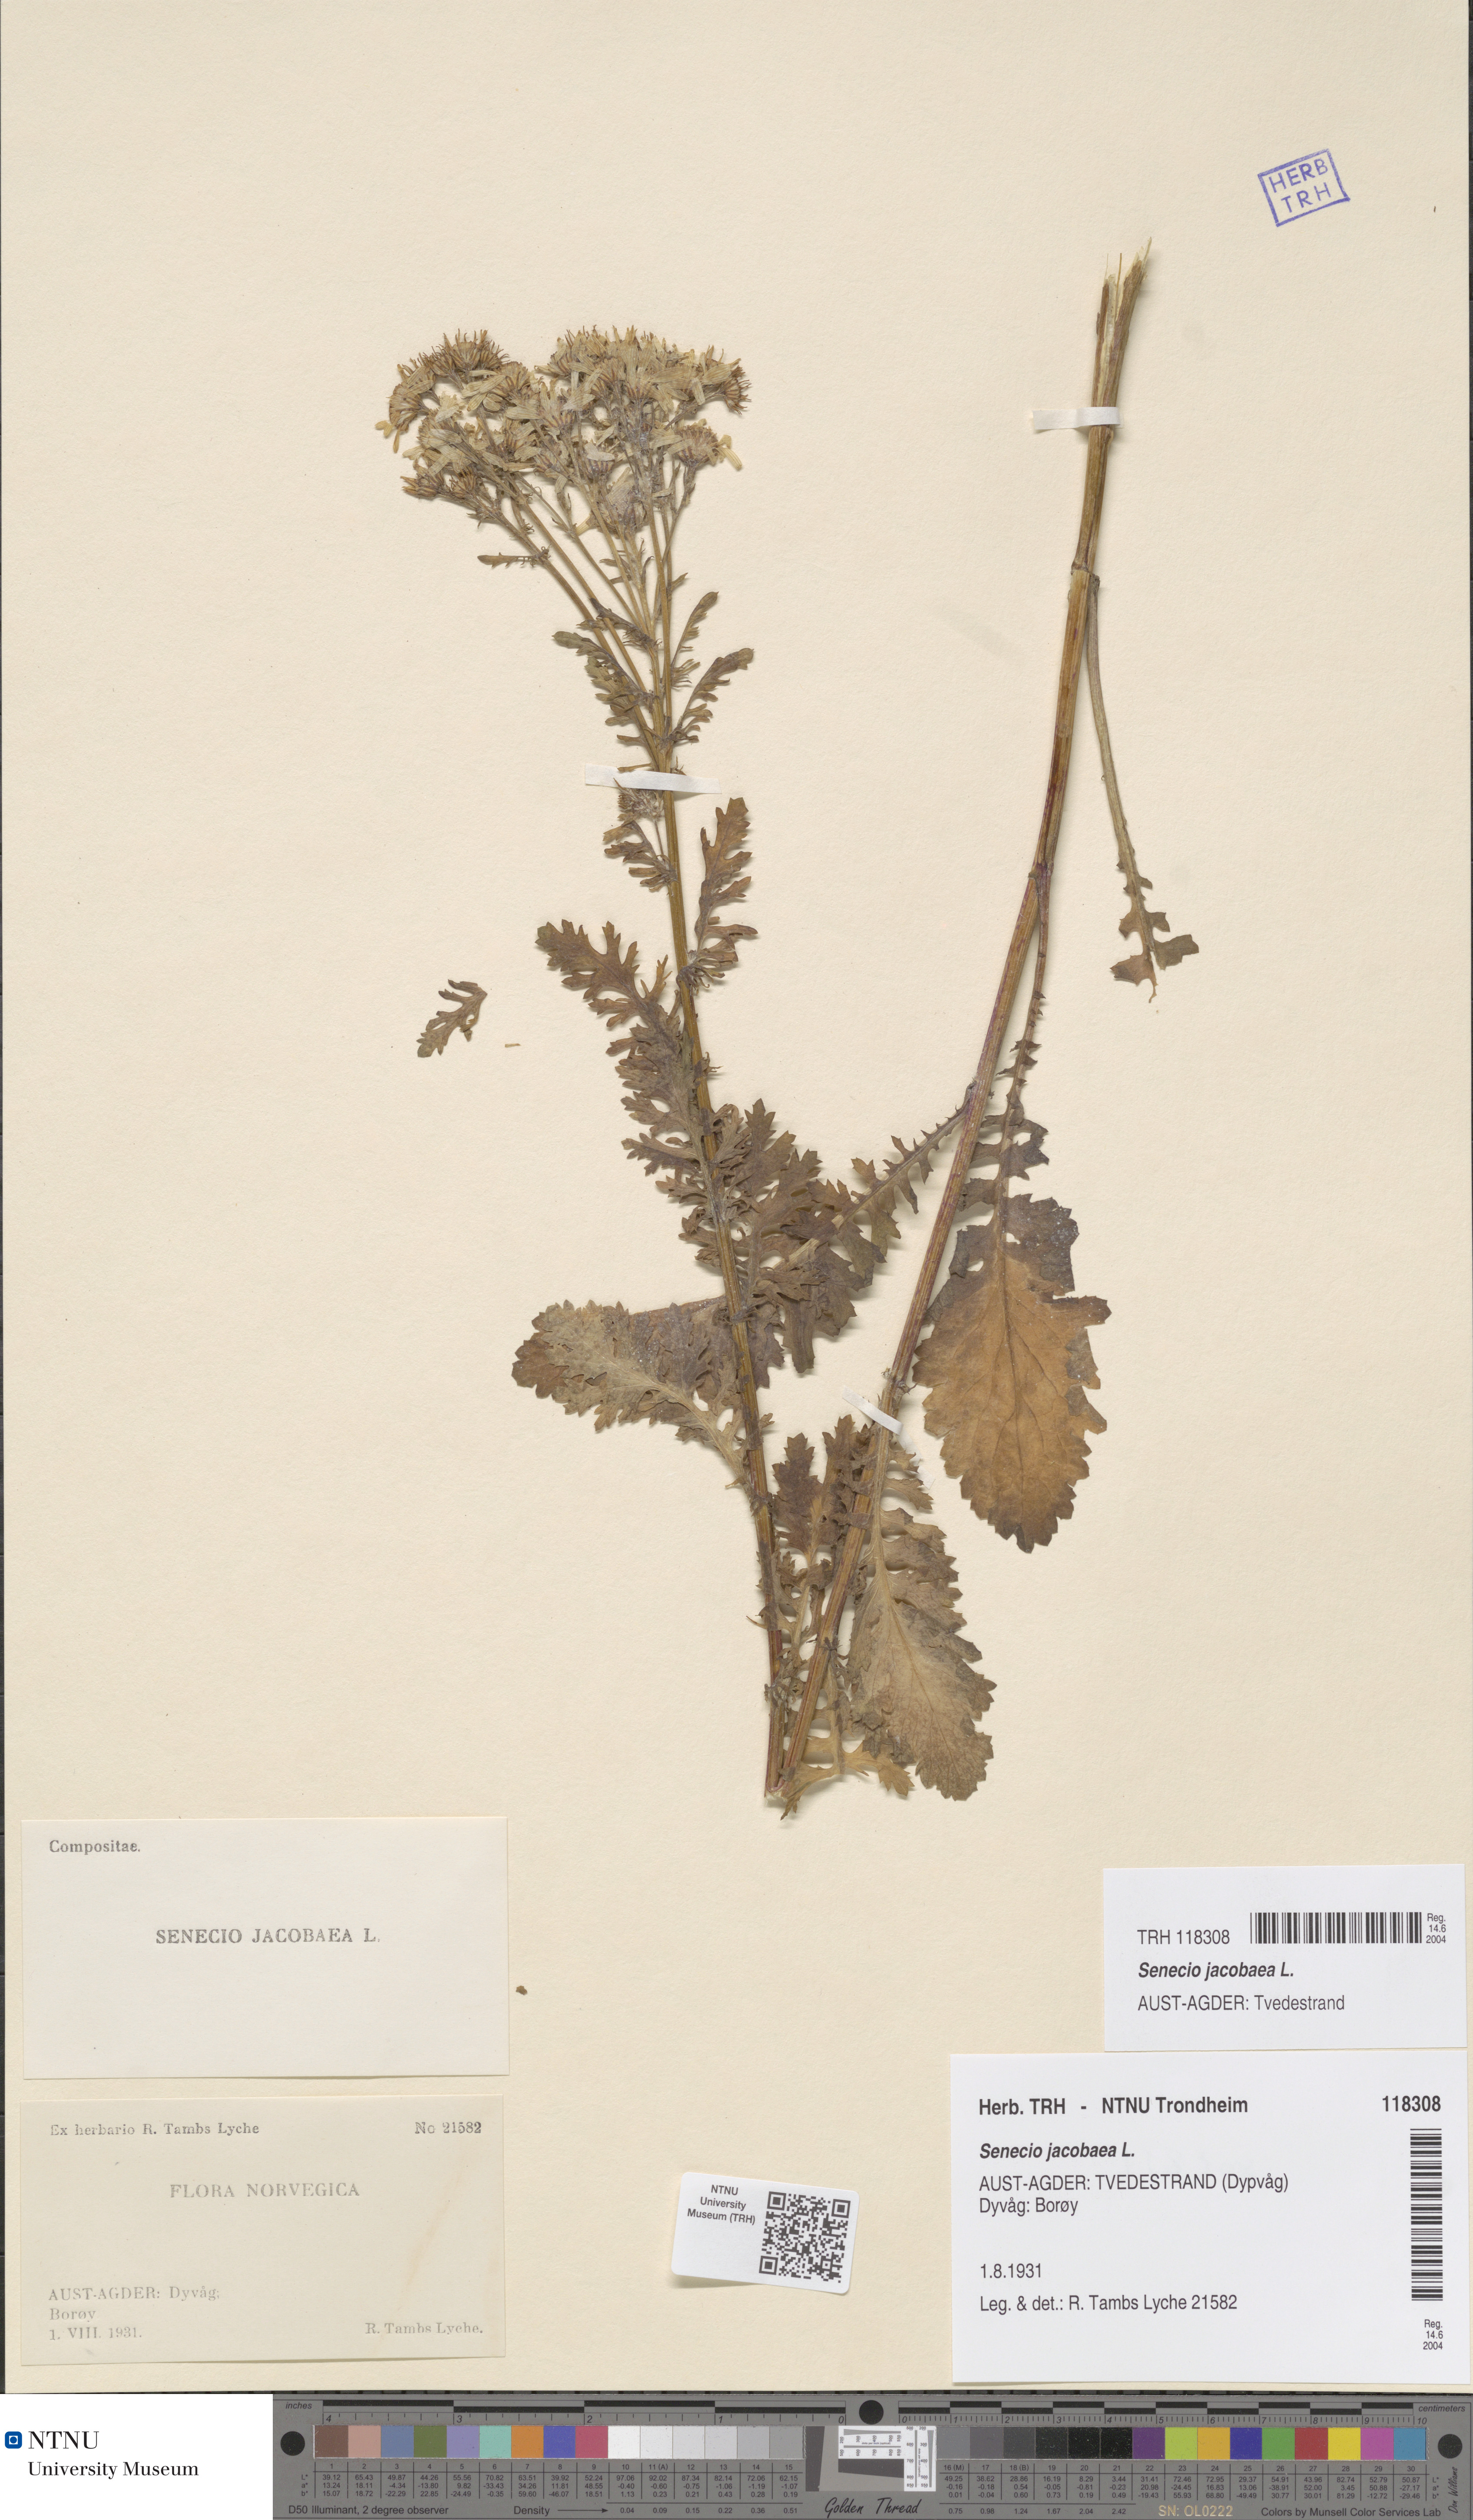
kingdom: Plantae
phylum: Tracheophyta
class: Magnoliopsida
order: Asterales
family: Asteraceae
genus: Jacobaea
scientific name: Jacobaea vulgaris
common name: Stinking willie
